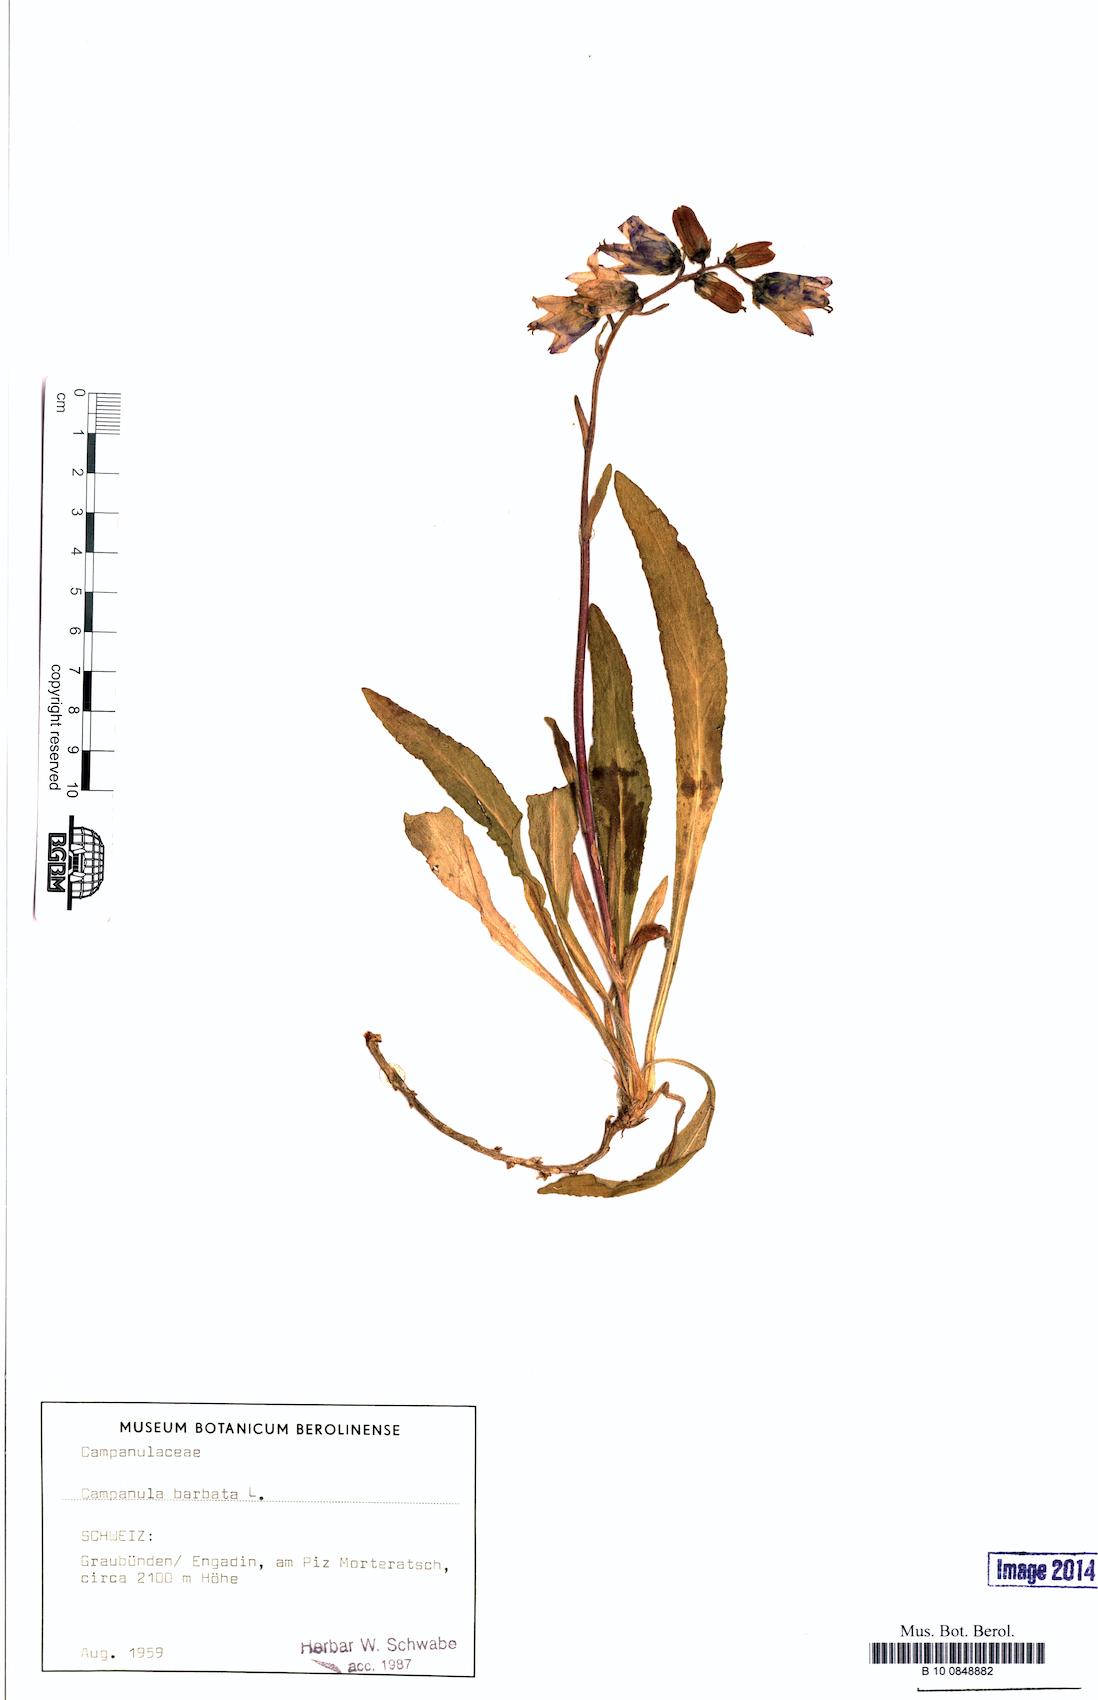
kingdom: Plantae
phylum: Tracheophyta
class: Magnoliopsida
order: Asterales
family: Campanulaceae
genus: Campanula
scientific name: Campanula barbata
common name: Bearded bellflower
